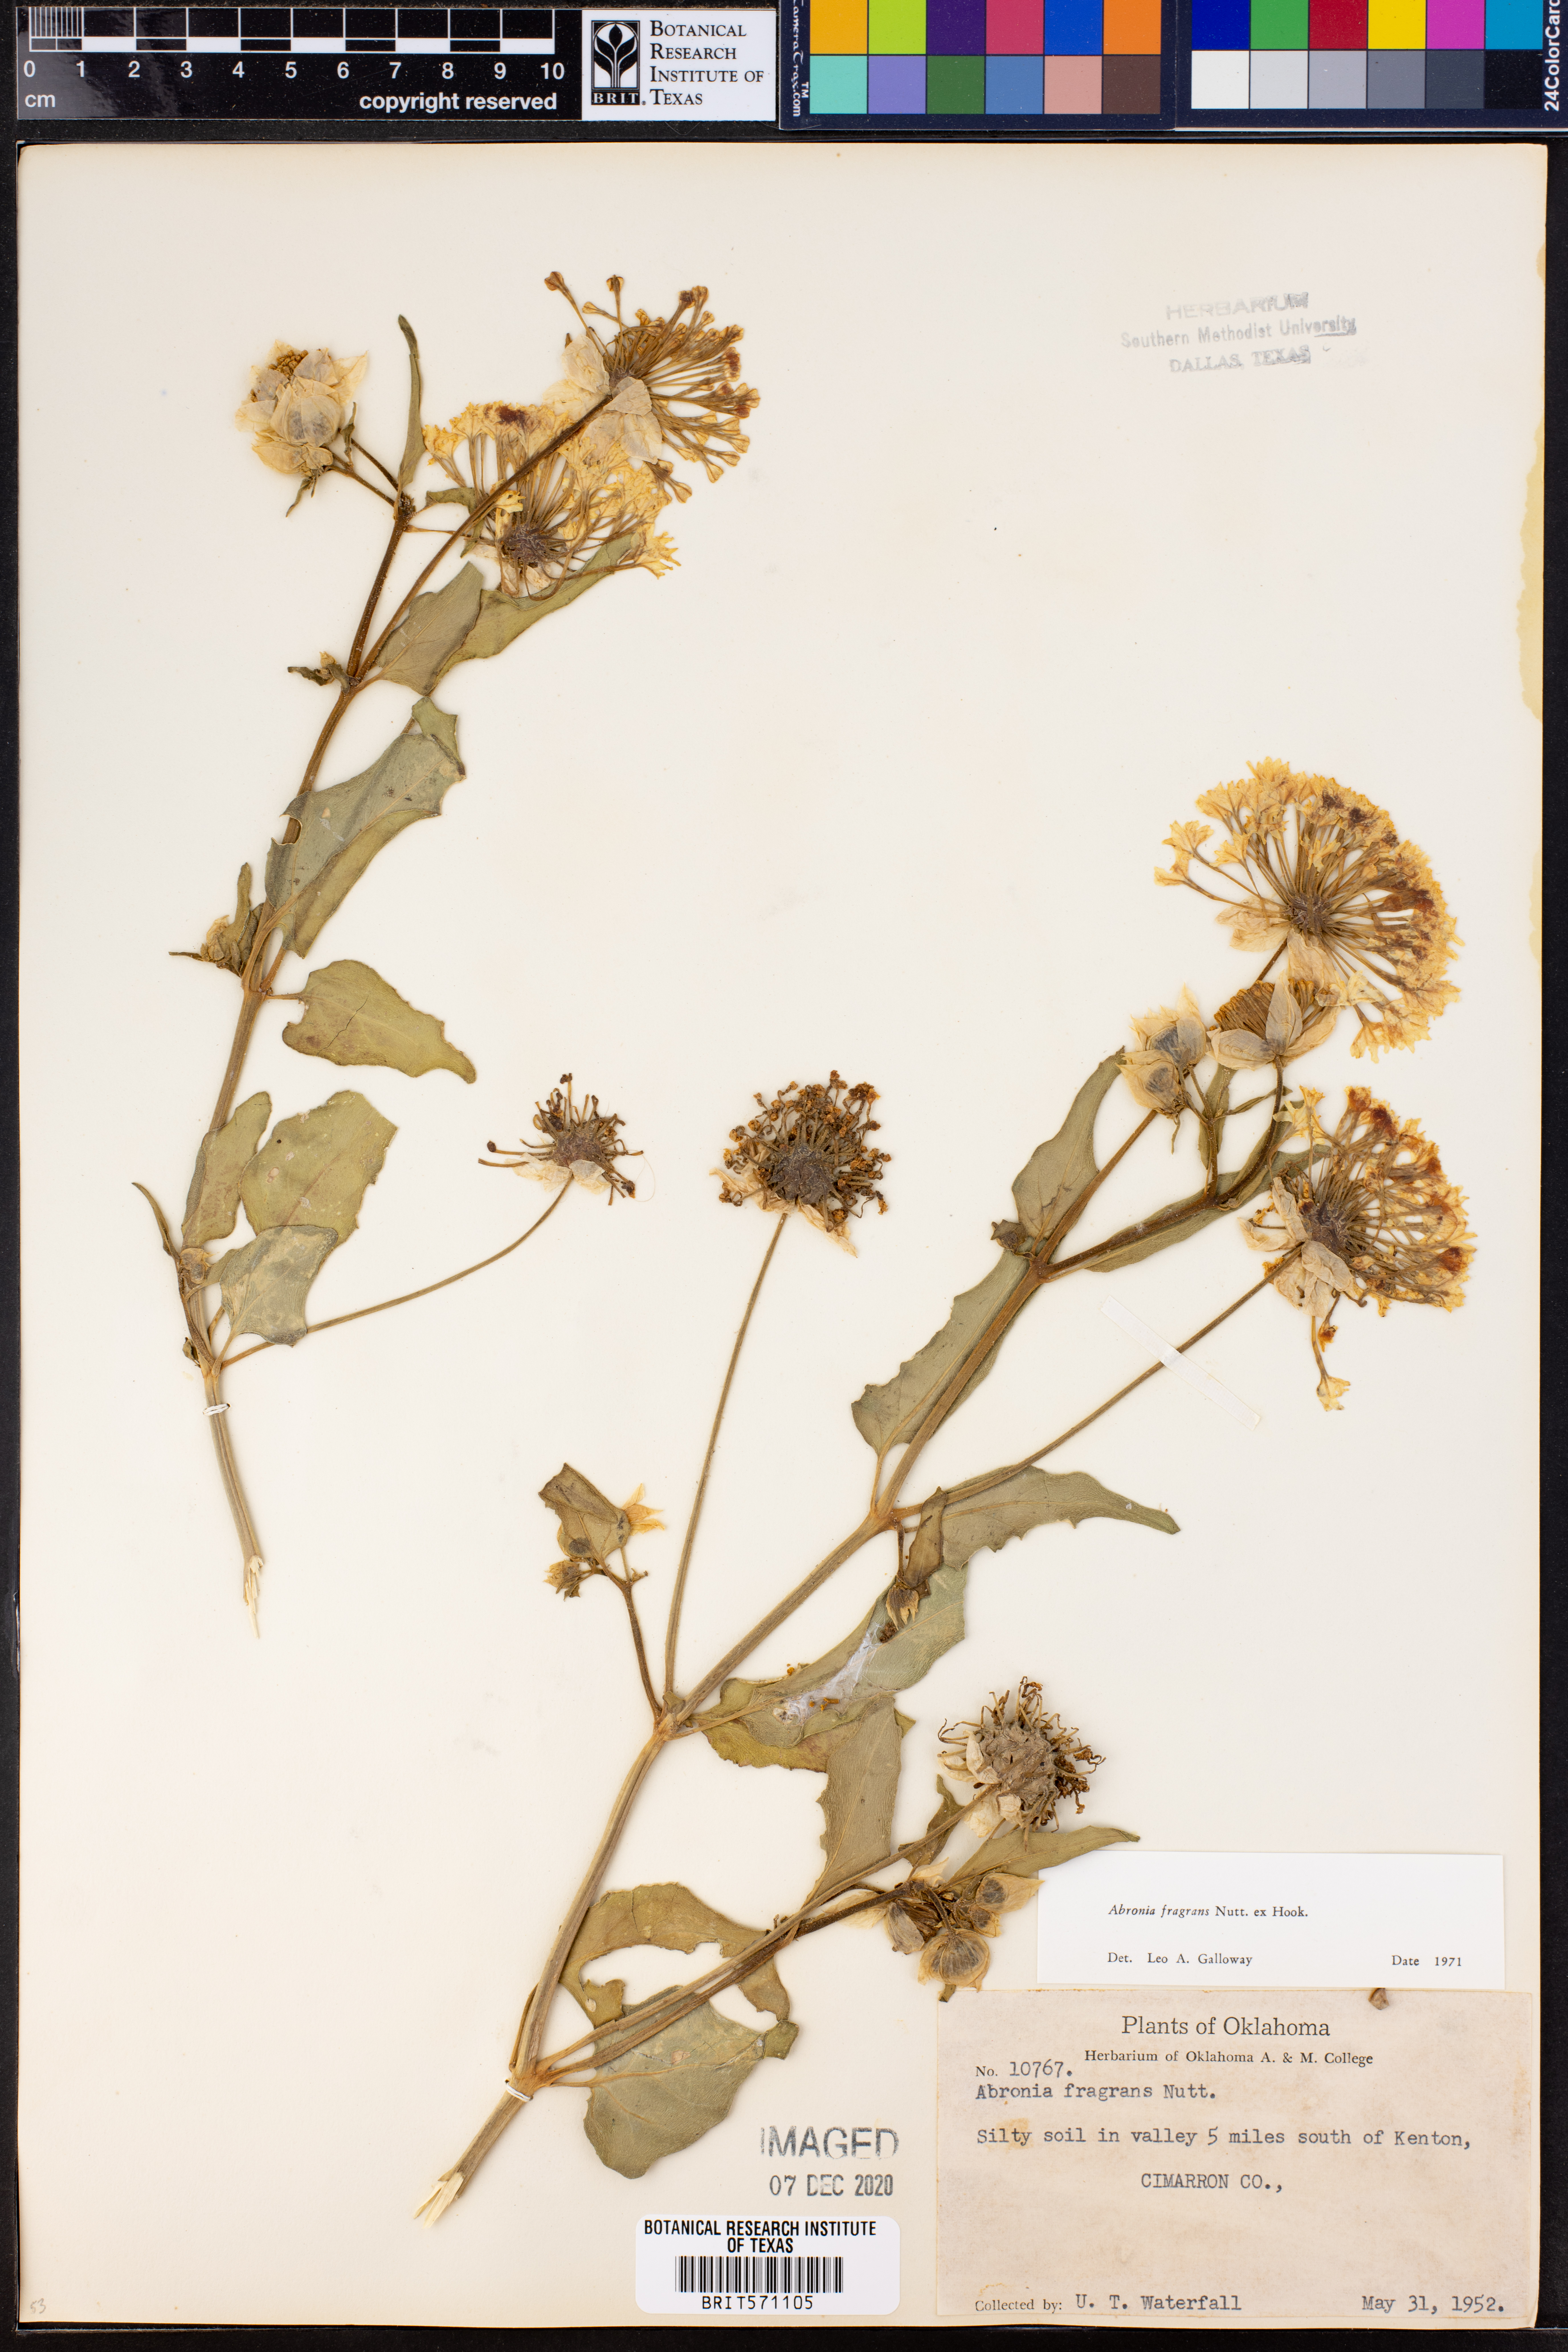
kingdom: Plantae
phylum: Tracheophyta
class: Magnoliopsida
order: Caryophyllales
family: Nyctaginaceae
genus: Abronia
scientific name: Abronia fragrans
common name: Fragrant sand-verbena
